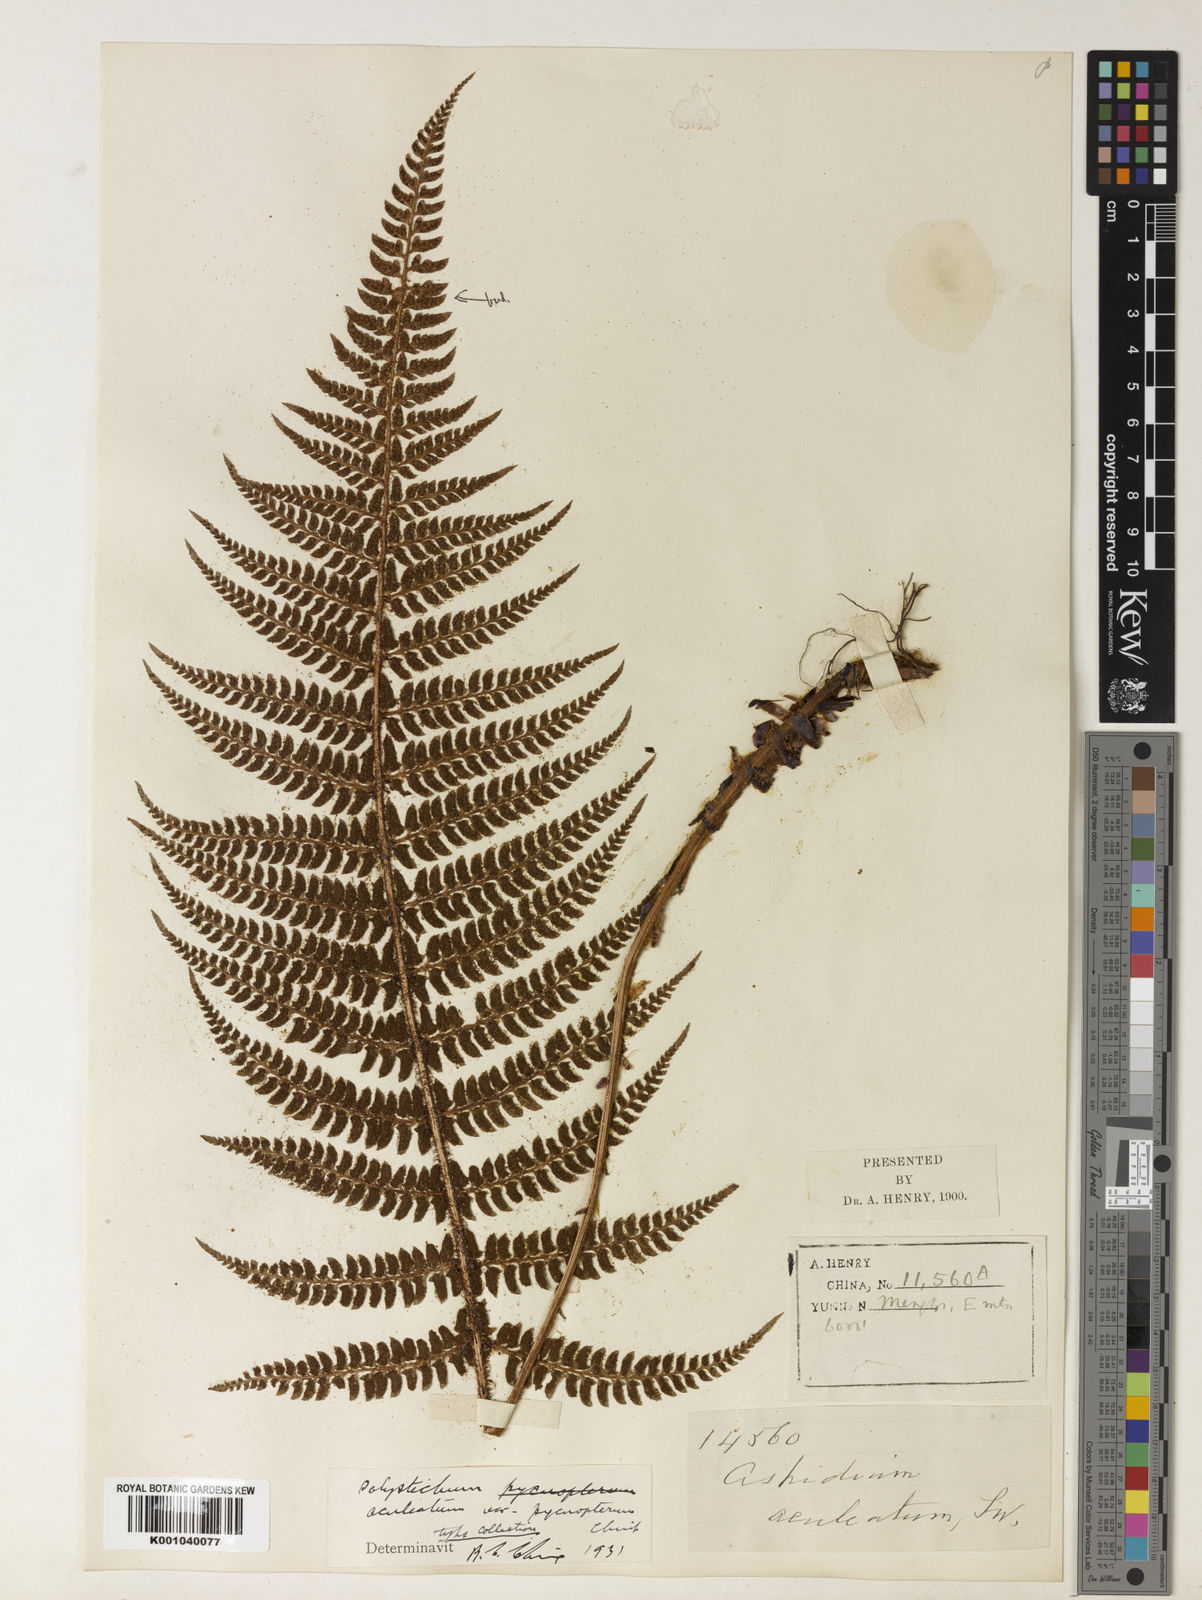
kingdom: Plantae
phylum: Tracheophyta
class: Polypodiopsida
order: Polypodiales
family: Dryopteridaceae
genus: Polystichum
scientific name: Polystichum yunnanense
